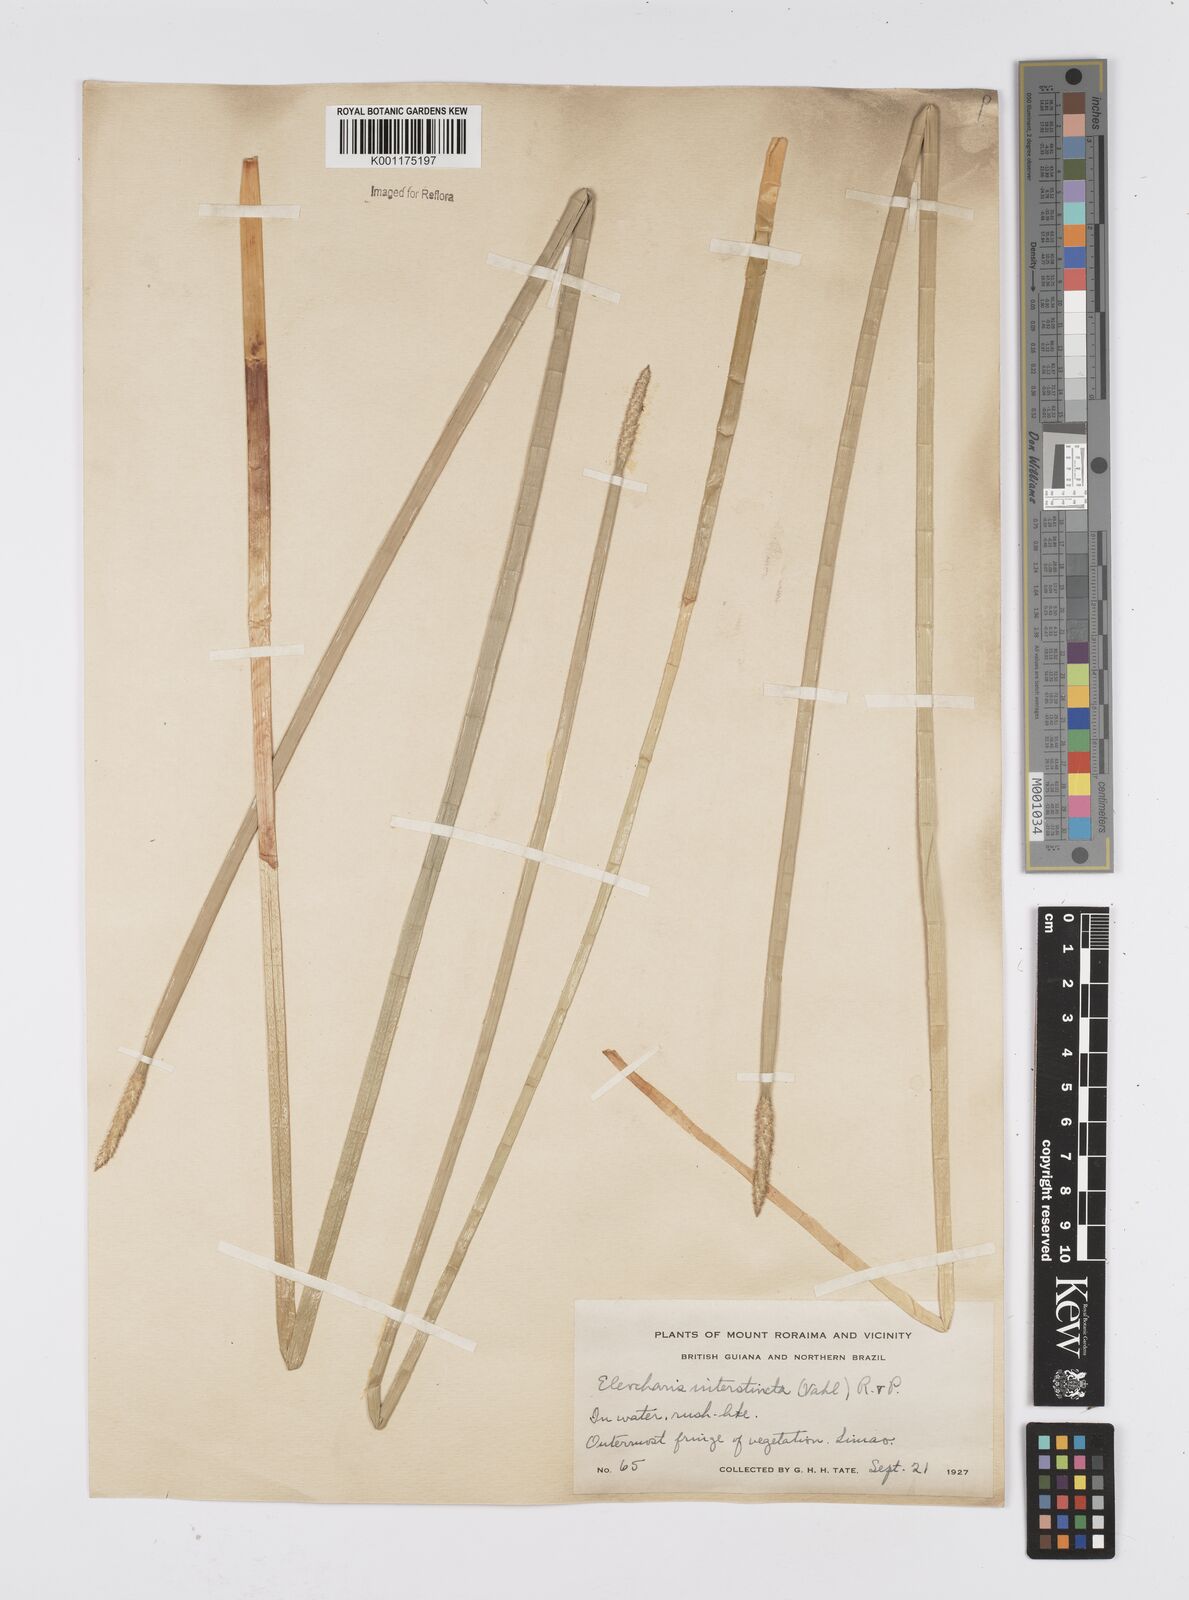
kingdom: Plantae
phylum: Tracheophyta
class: Liliopsida
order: Poales
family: Cyperaceae
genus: Eleocharis
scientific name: Eleocharis interstincta
